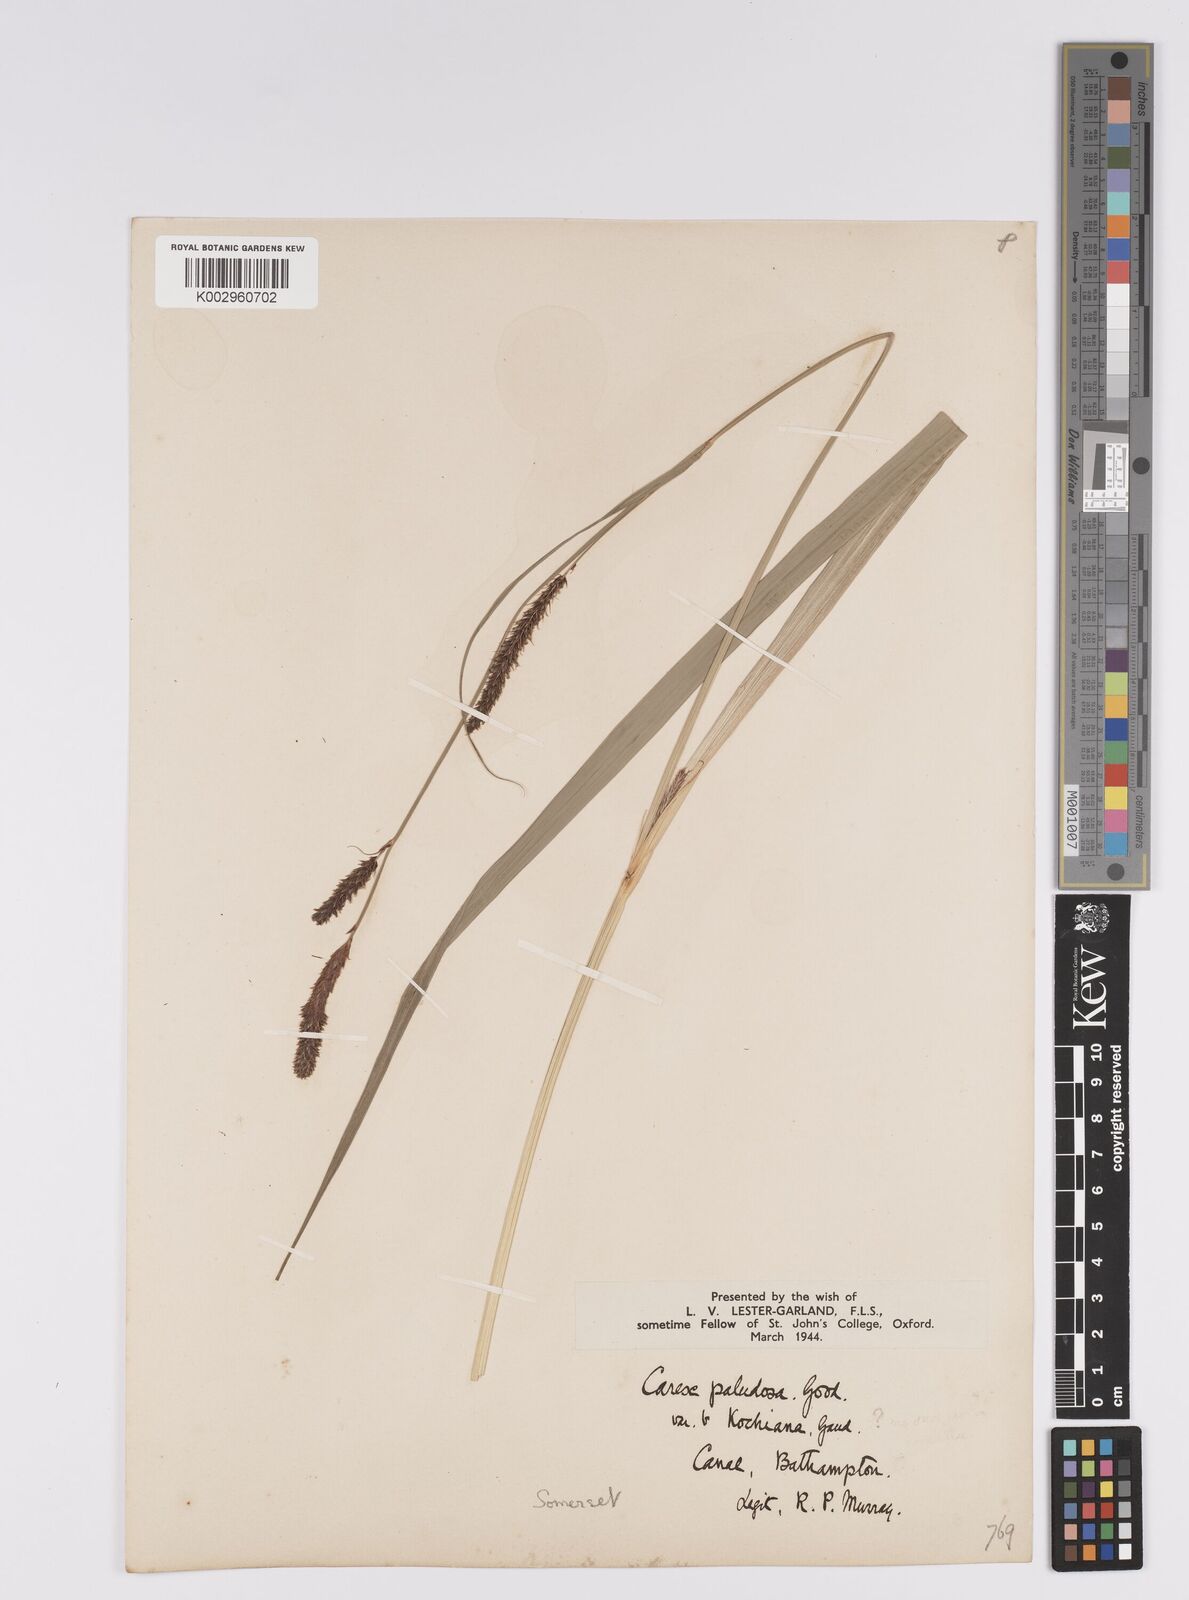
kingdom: Plantae
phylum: Tracheophyta
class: Liliopsida
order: Poales
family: Cyperaceae
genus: Carex
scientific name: Carex acutiformis
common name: Lesser pond-sedge
